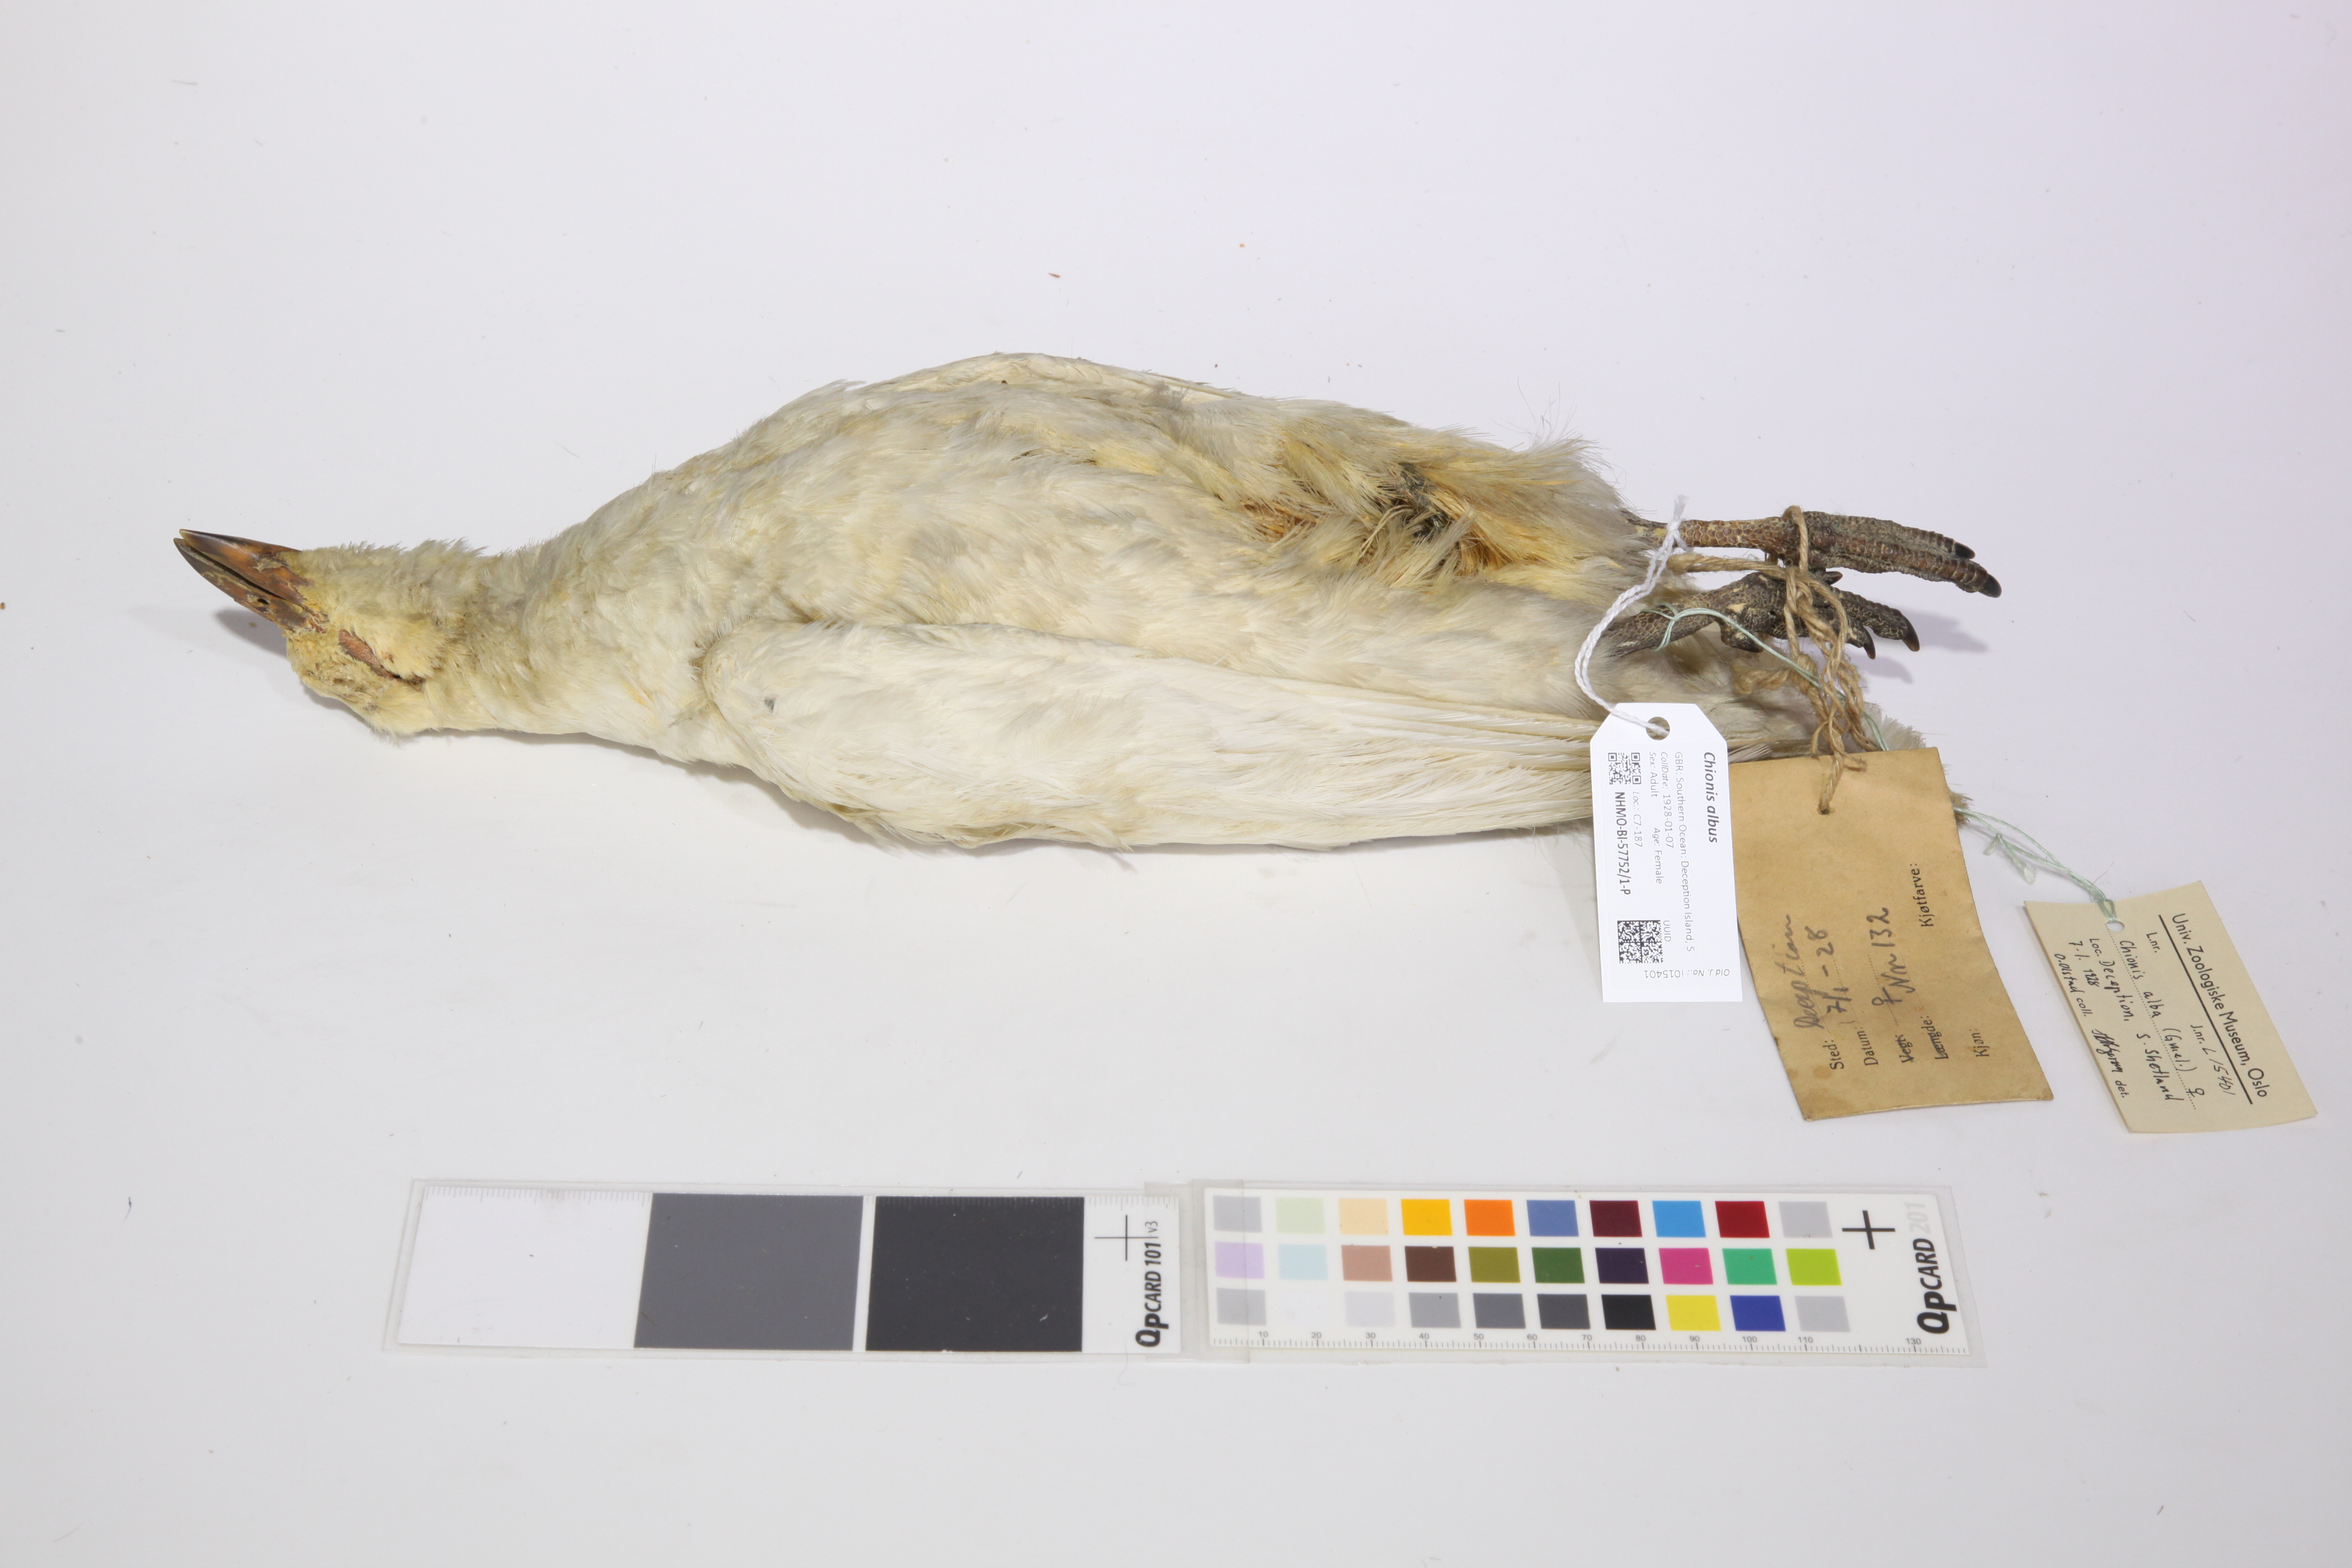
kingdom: Animalia
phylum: Chordata
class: Aves
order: Charadriiformes
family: Chionidae
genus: Chionis
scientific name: Chionis albus
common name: Snowy sheathbill
